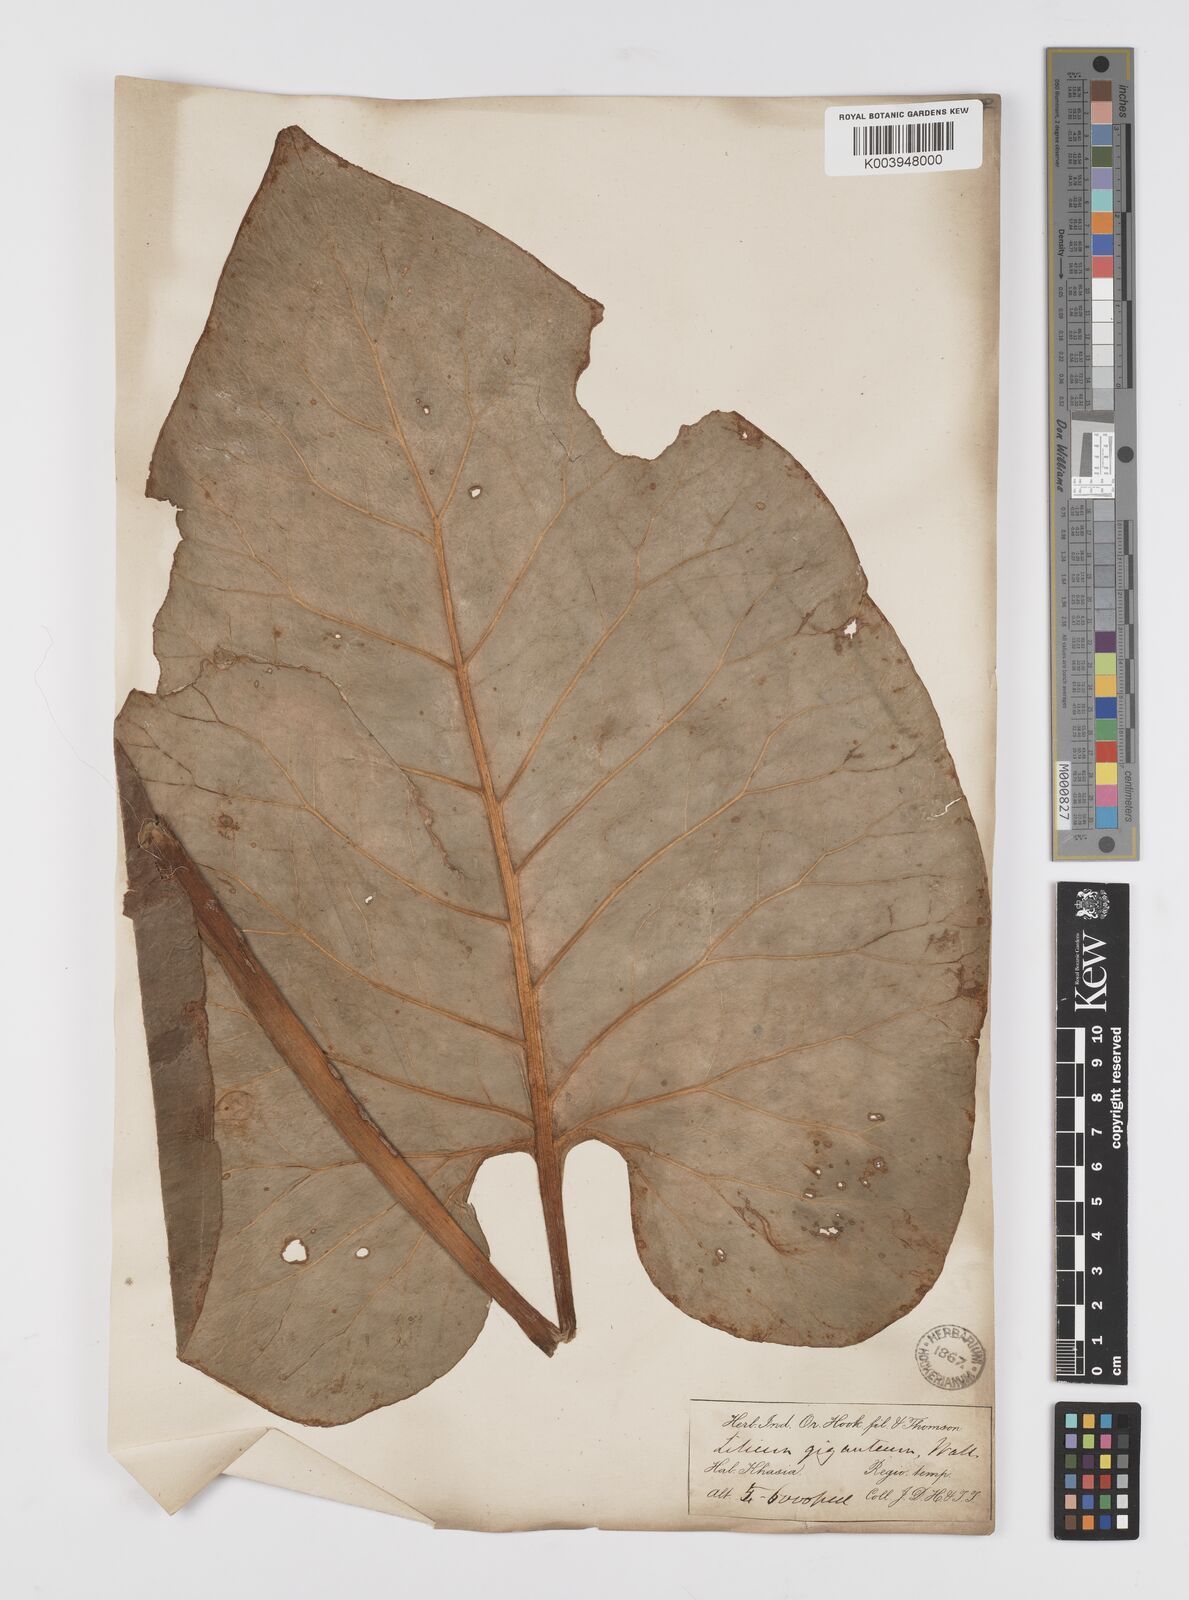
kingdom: Plantae
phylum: Tracheophyta
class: Liliopsida
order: Liliales
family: Liliaceae
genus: Cardiocrinum
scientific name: Cardiocrinum giganteum
